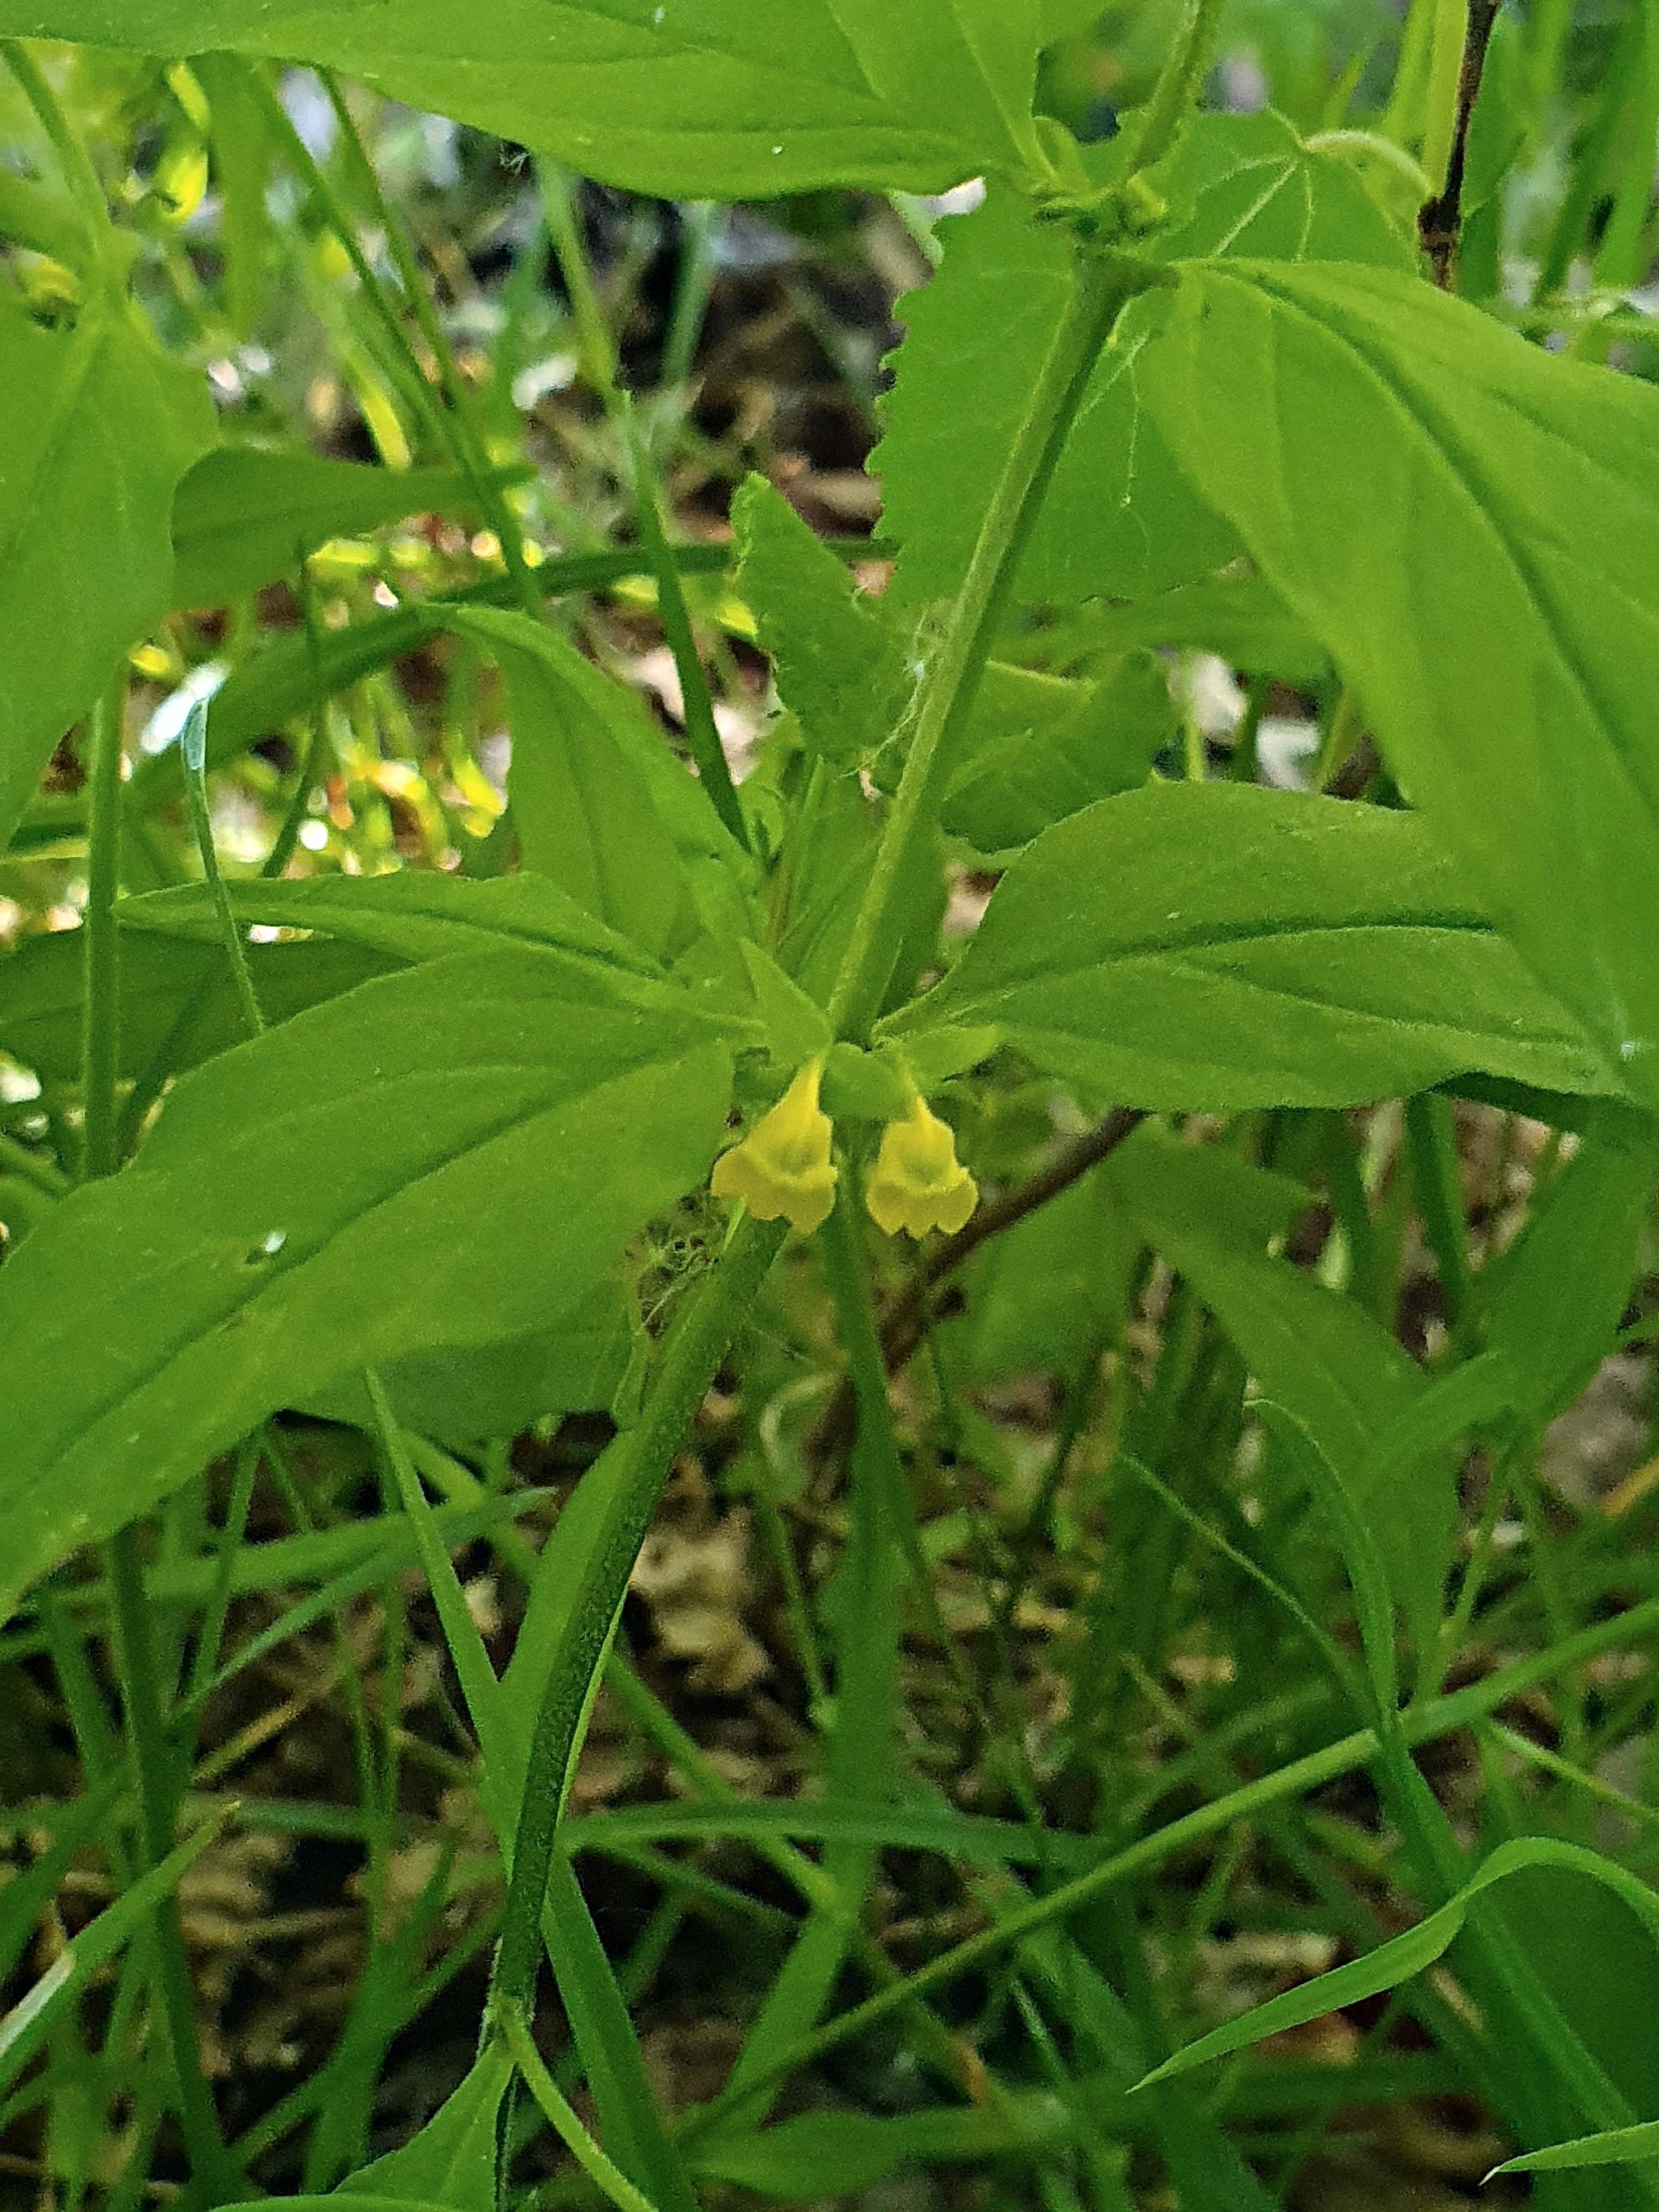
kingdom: Plantae
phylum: Tracheophyta
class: Magnoliopsida
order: Lamiales
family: Orobanchaceae
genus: Melampyrum
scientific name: Melampyrum sylvaticum
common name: Skov-kohvede
